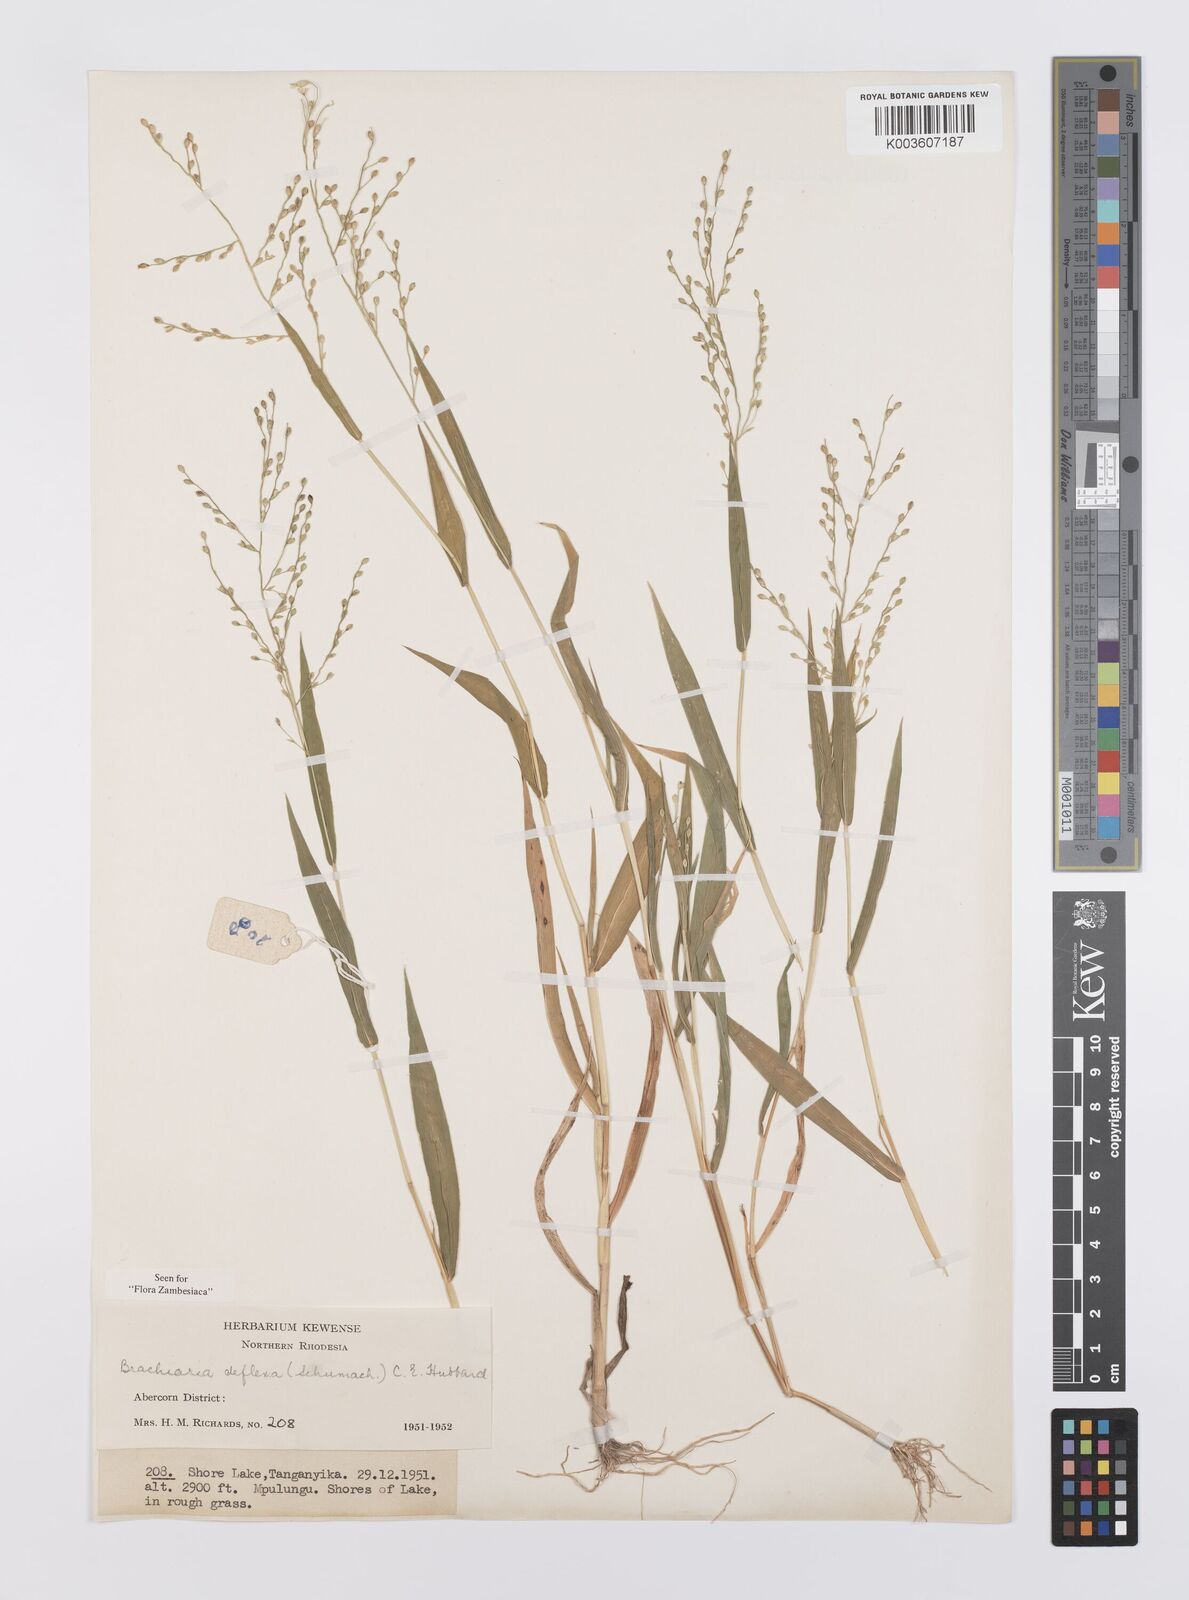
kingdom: Plantae
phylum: Tracheophyta
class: Liliopsida
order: Poales
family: Poaceae
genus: Urochloa
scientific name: Urochloa deflexa
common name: Guinea millet
